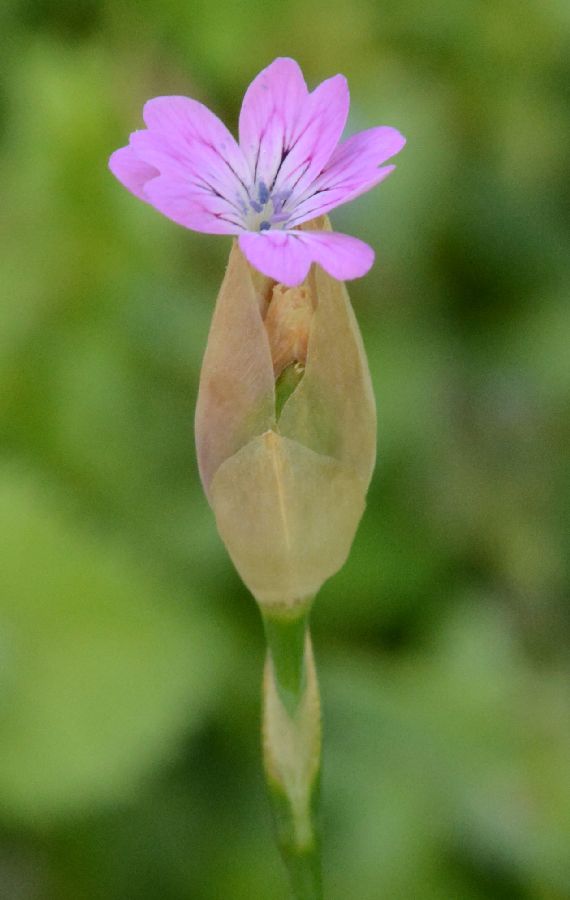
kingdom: Plantae
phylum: Tracheophyta
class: Magnoliopsida
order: Caryophyllales
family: Caryophyllaceae
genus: Petrorhagia
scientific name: Petrorhagia dubia
